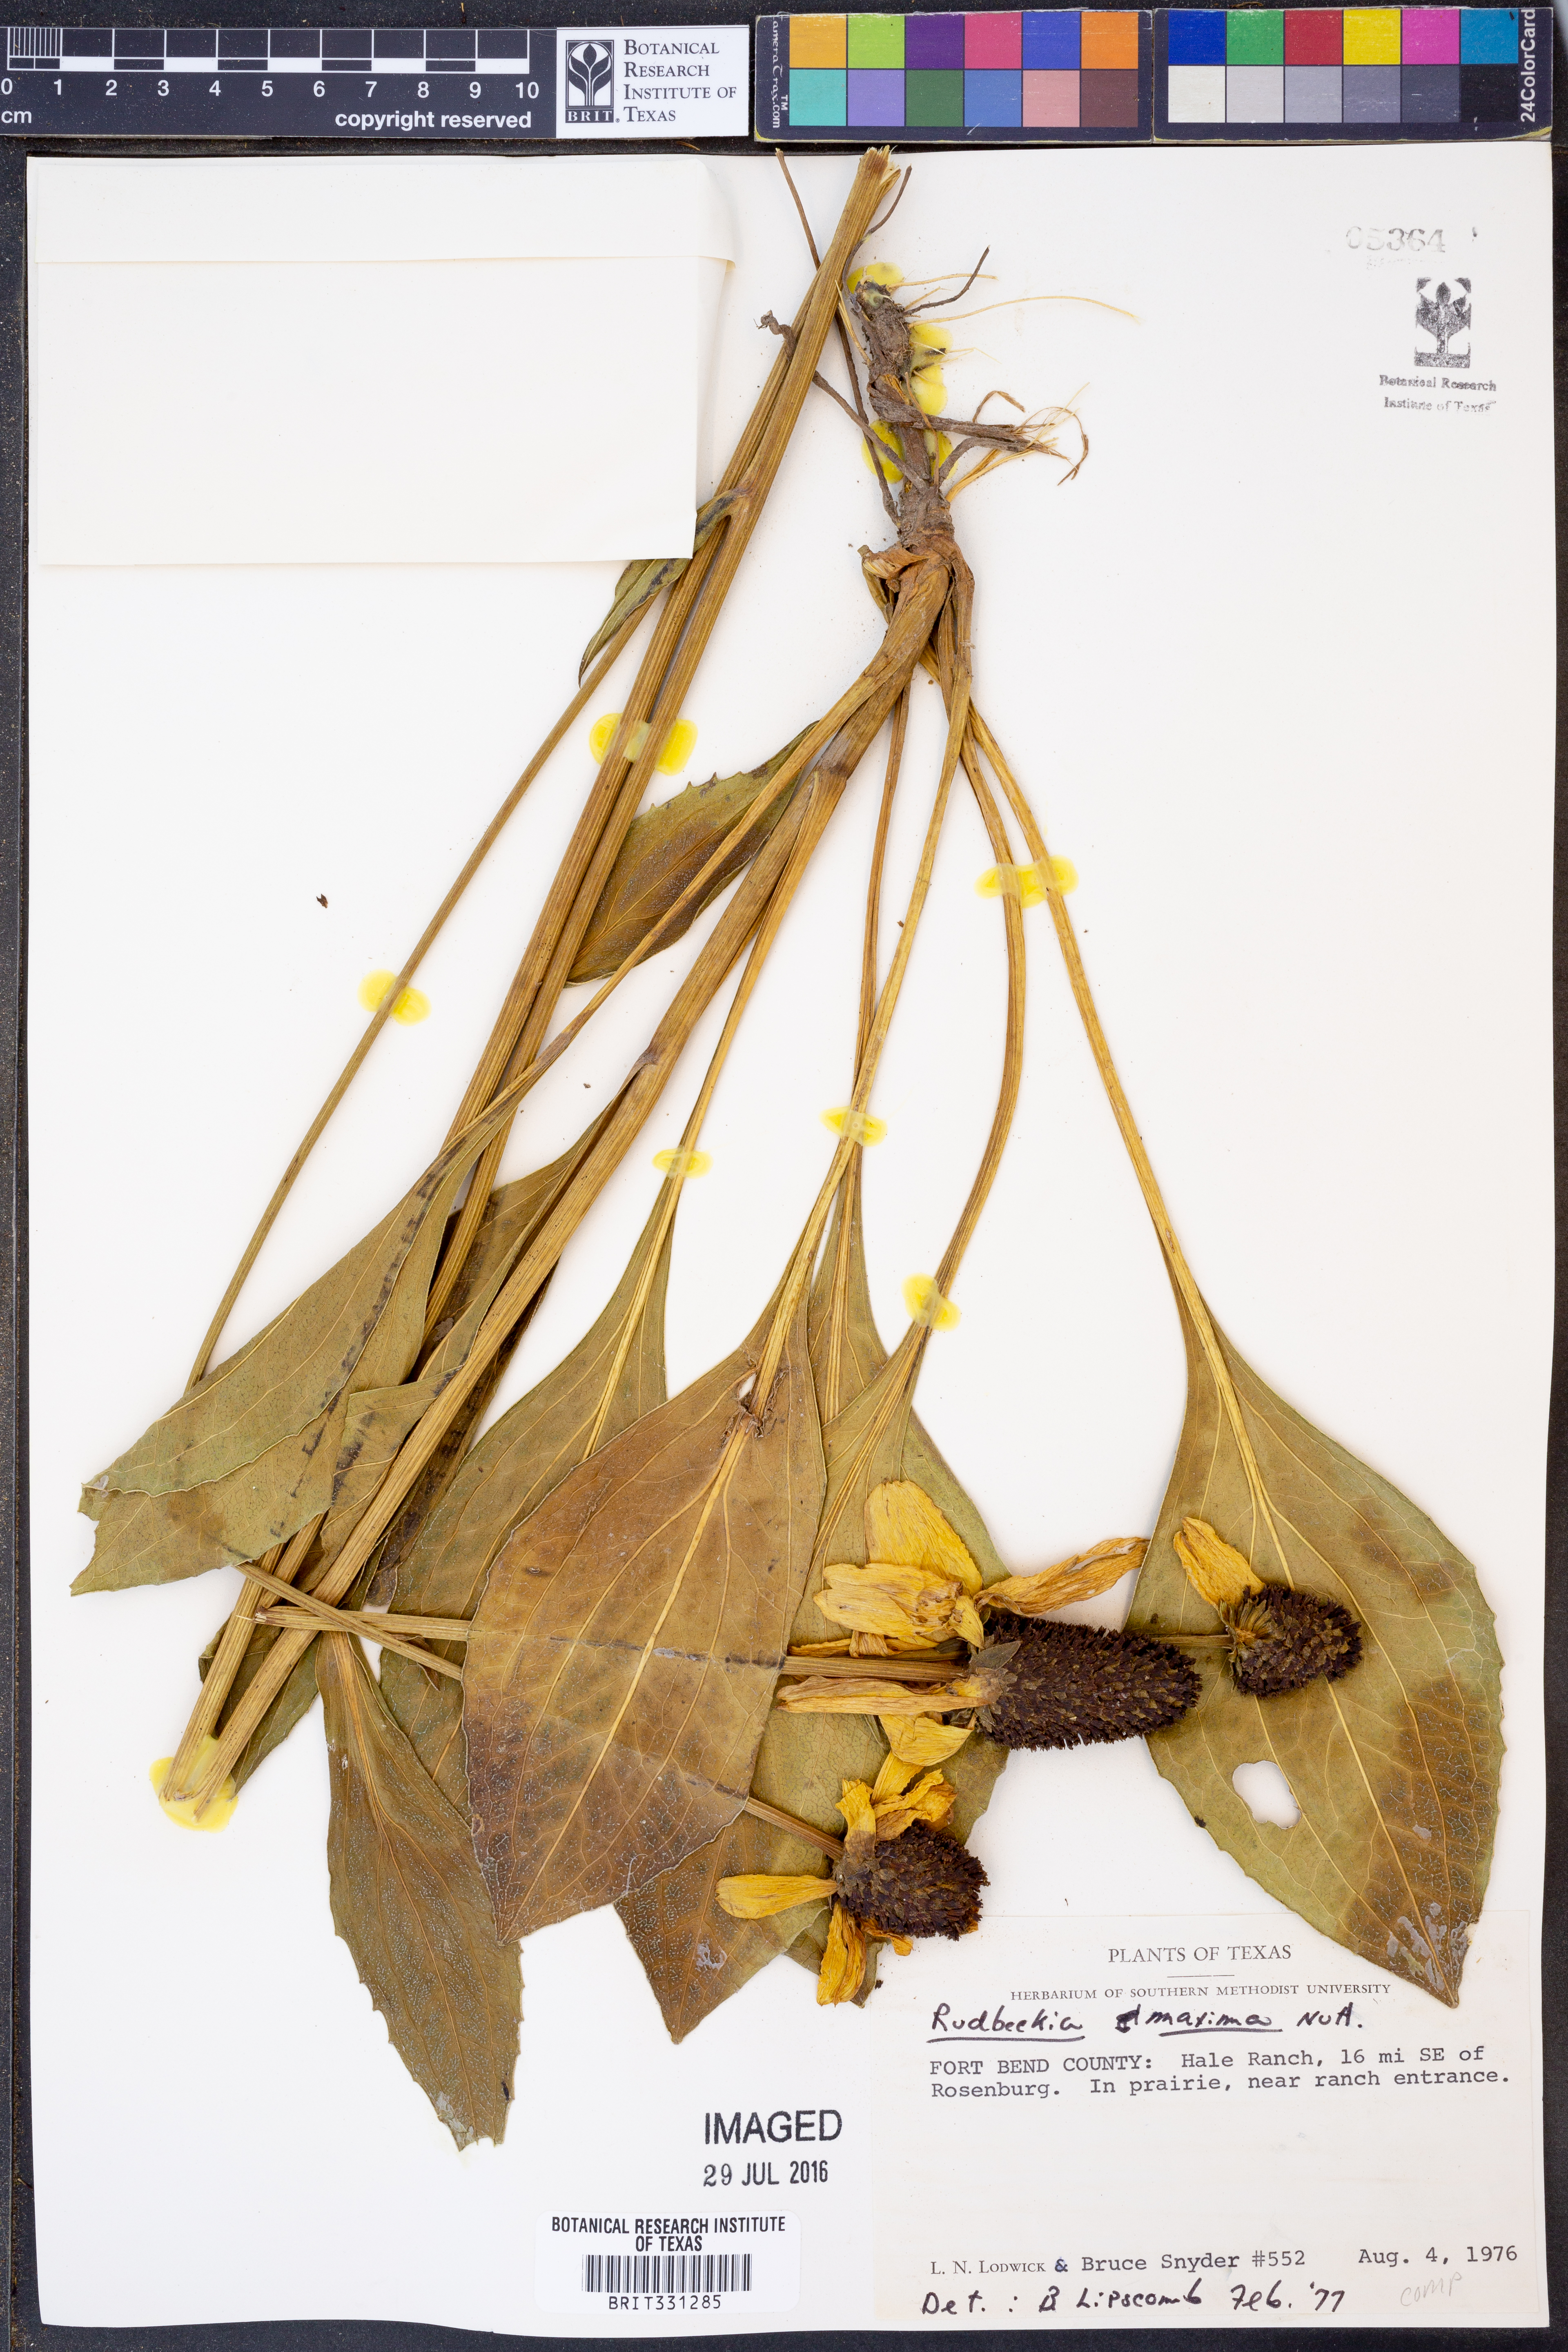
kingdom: Plantae
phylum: Tracheophyta
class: Magnoliopsida
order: Asterales
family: Asteraceae
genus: Rudbeckia
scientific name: Rudbeckia maxima
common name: Cabbage coneflower
